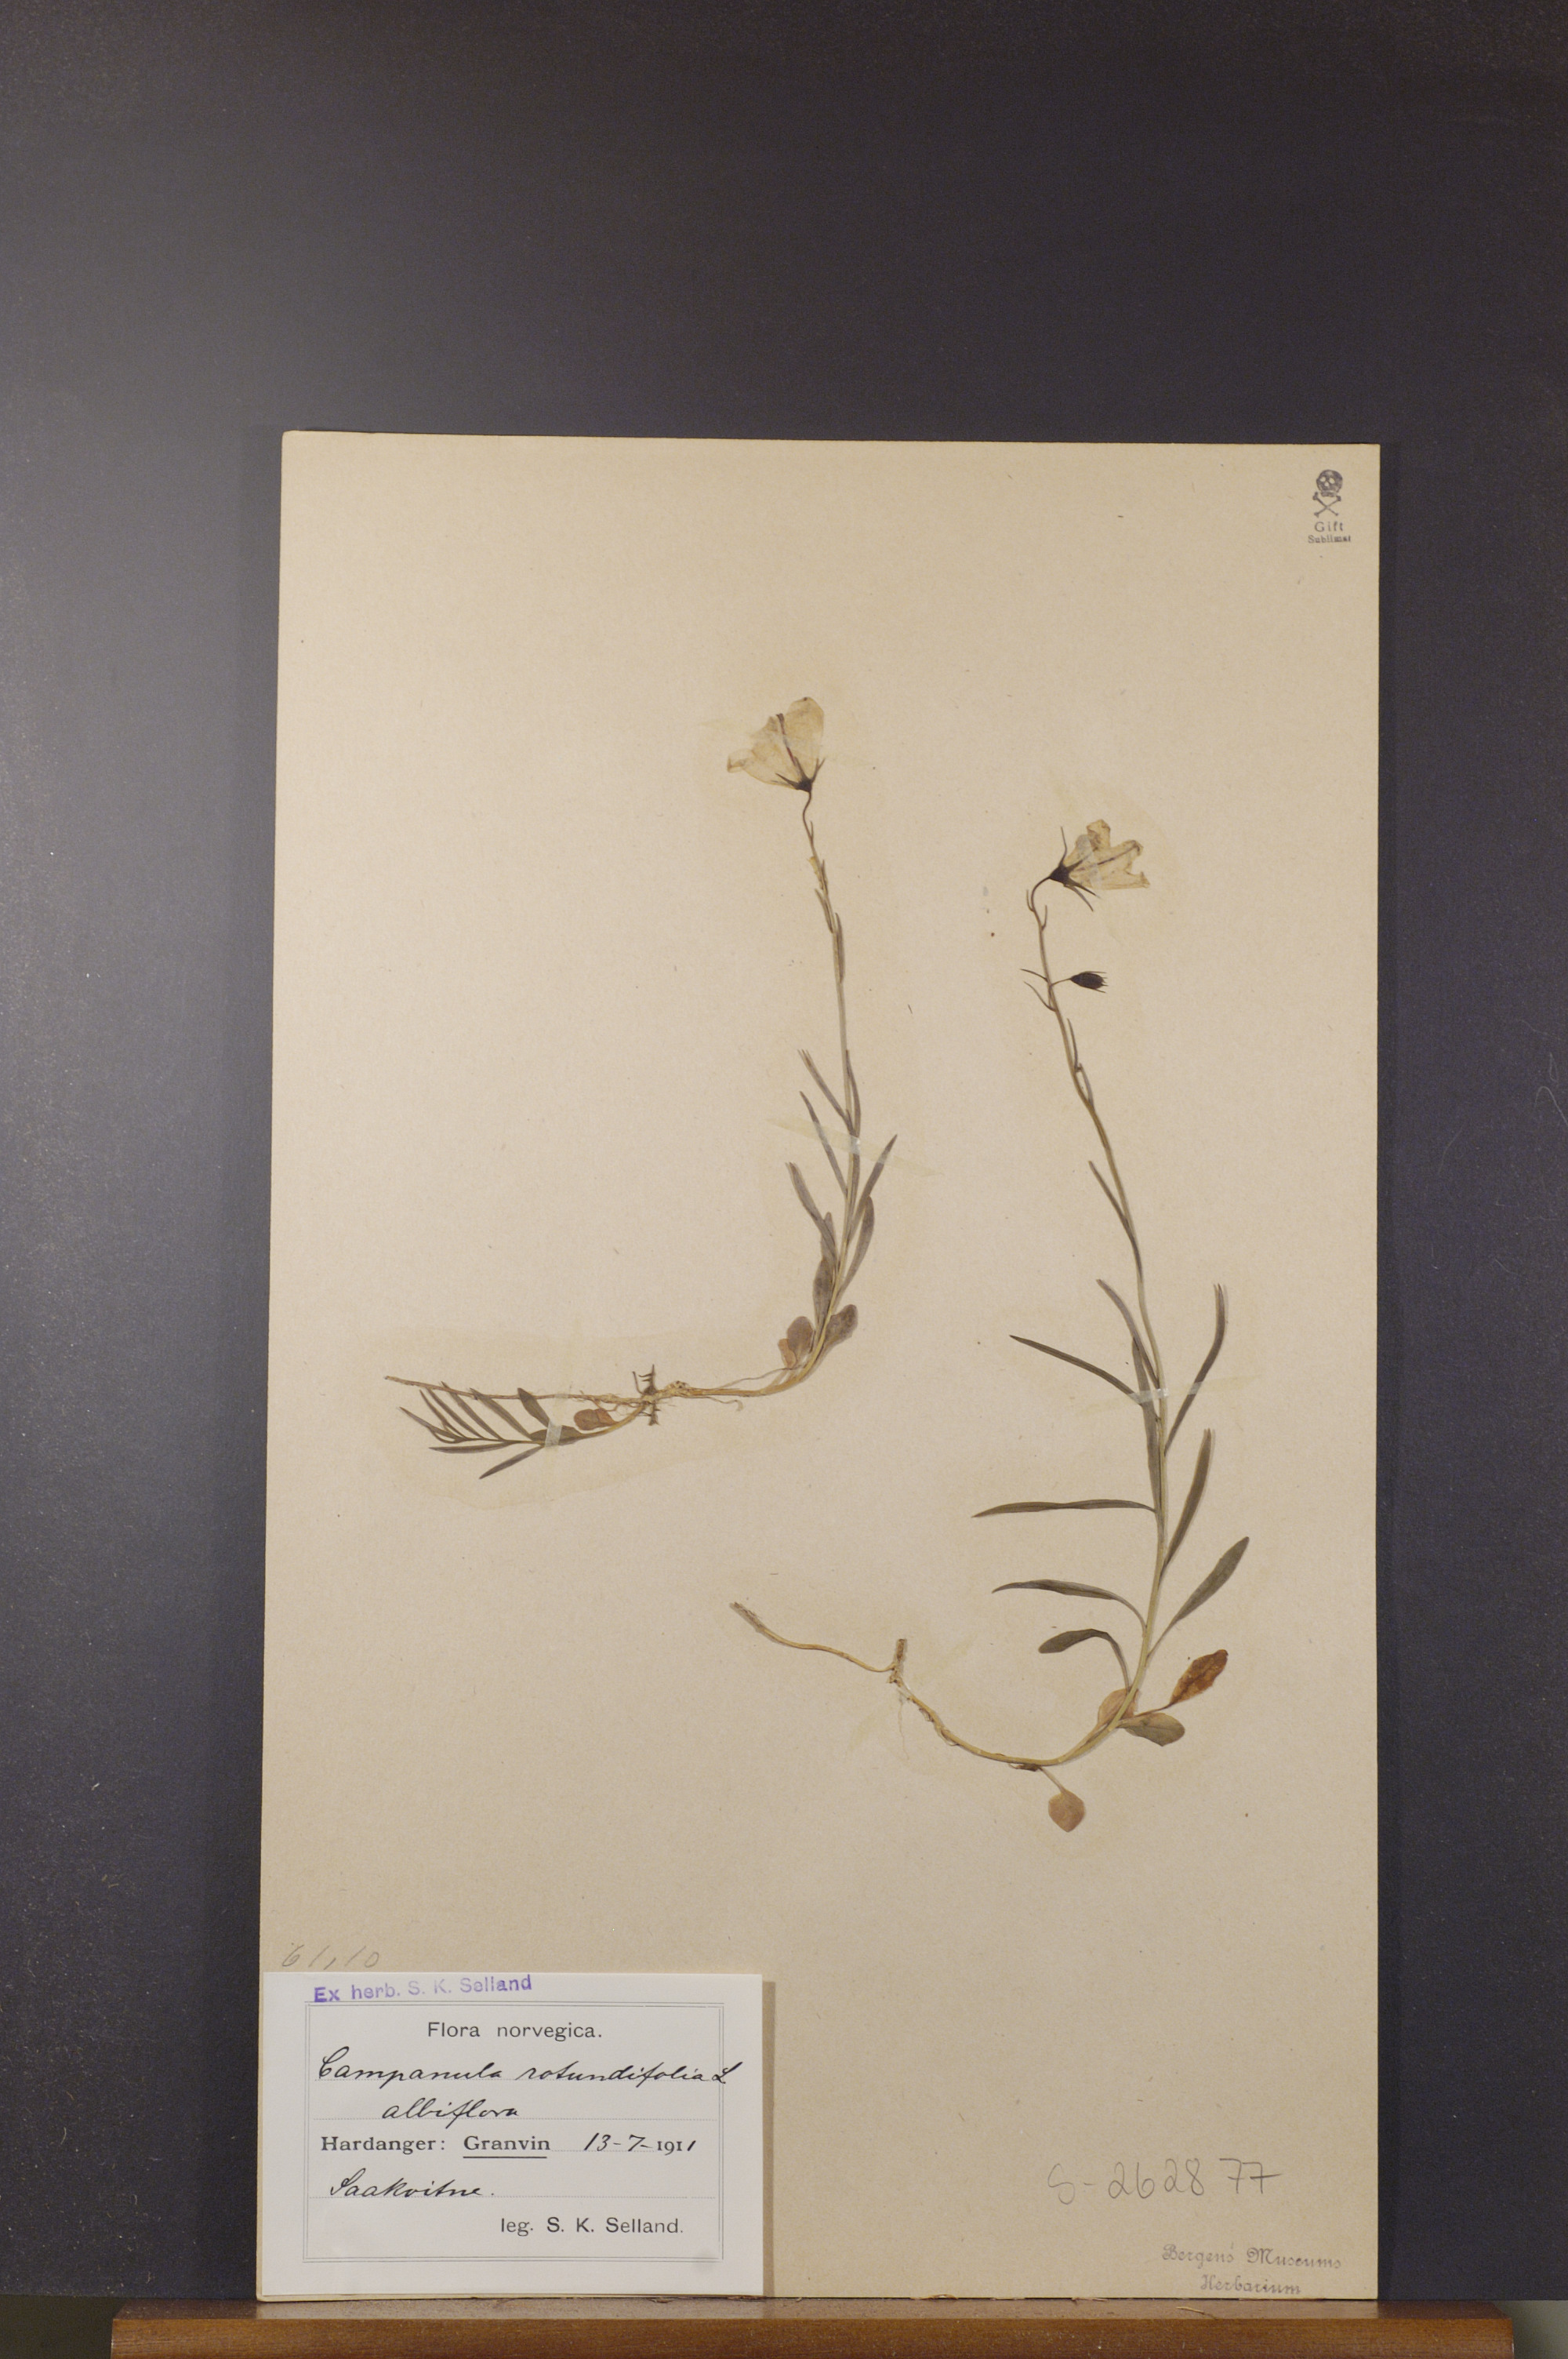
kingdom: Plantae
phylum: Tracheophyta
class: Magnoliopsida
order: Asterales
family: Campanulaceae
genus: Campanula
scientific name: Campanula rotundifolia
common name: Harebell
